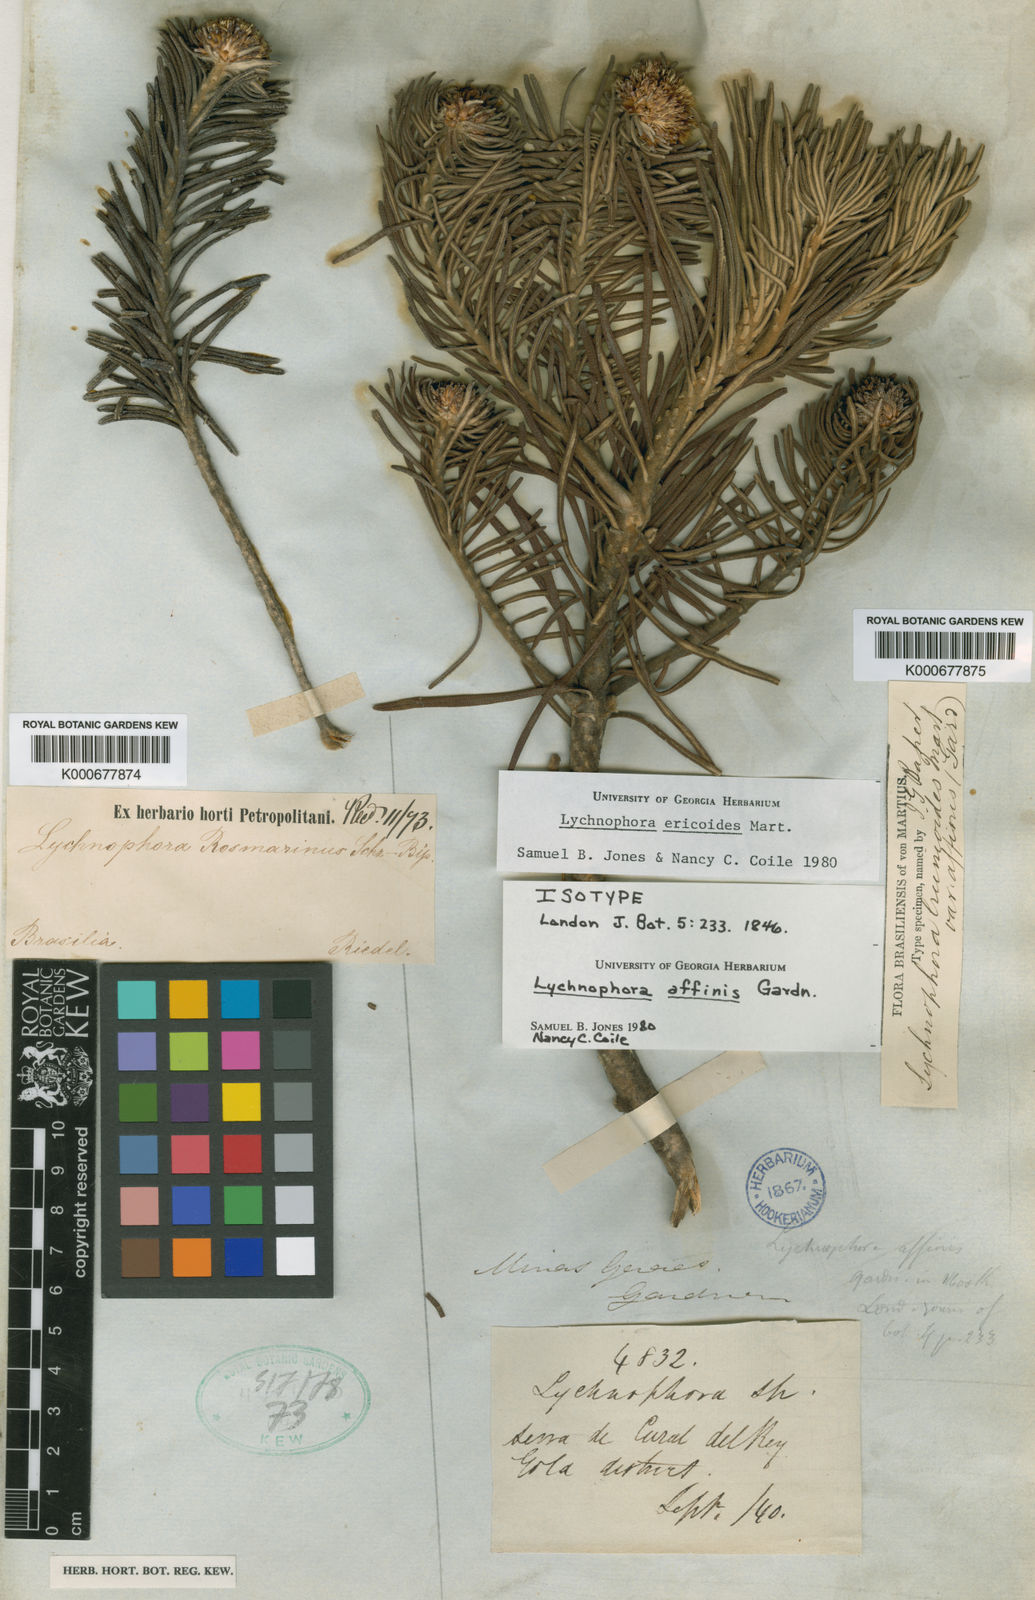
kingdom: Plantae
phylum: Tracheophyta
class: Magnoliopsida
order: Asterales
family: Asteraceae
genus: Lychnophora
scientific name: Lychnophora ericoides
